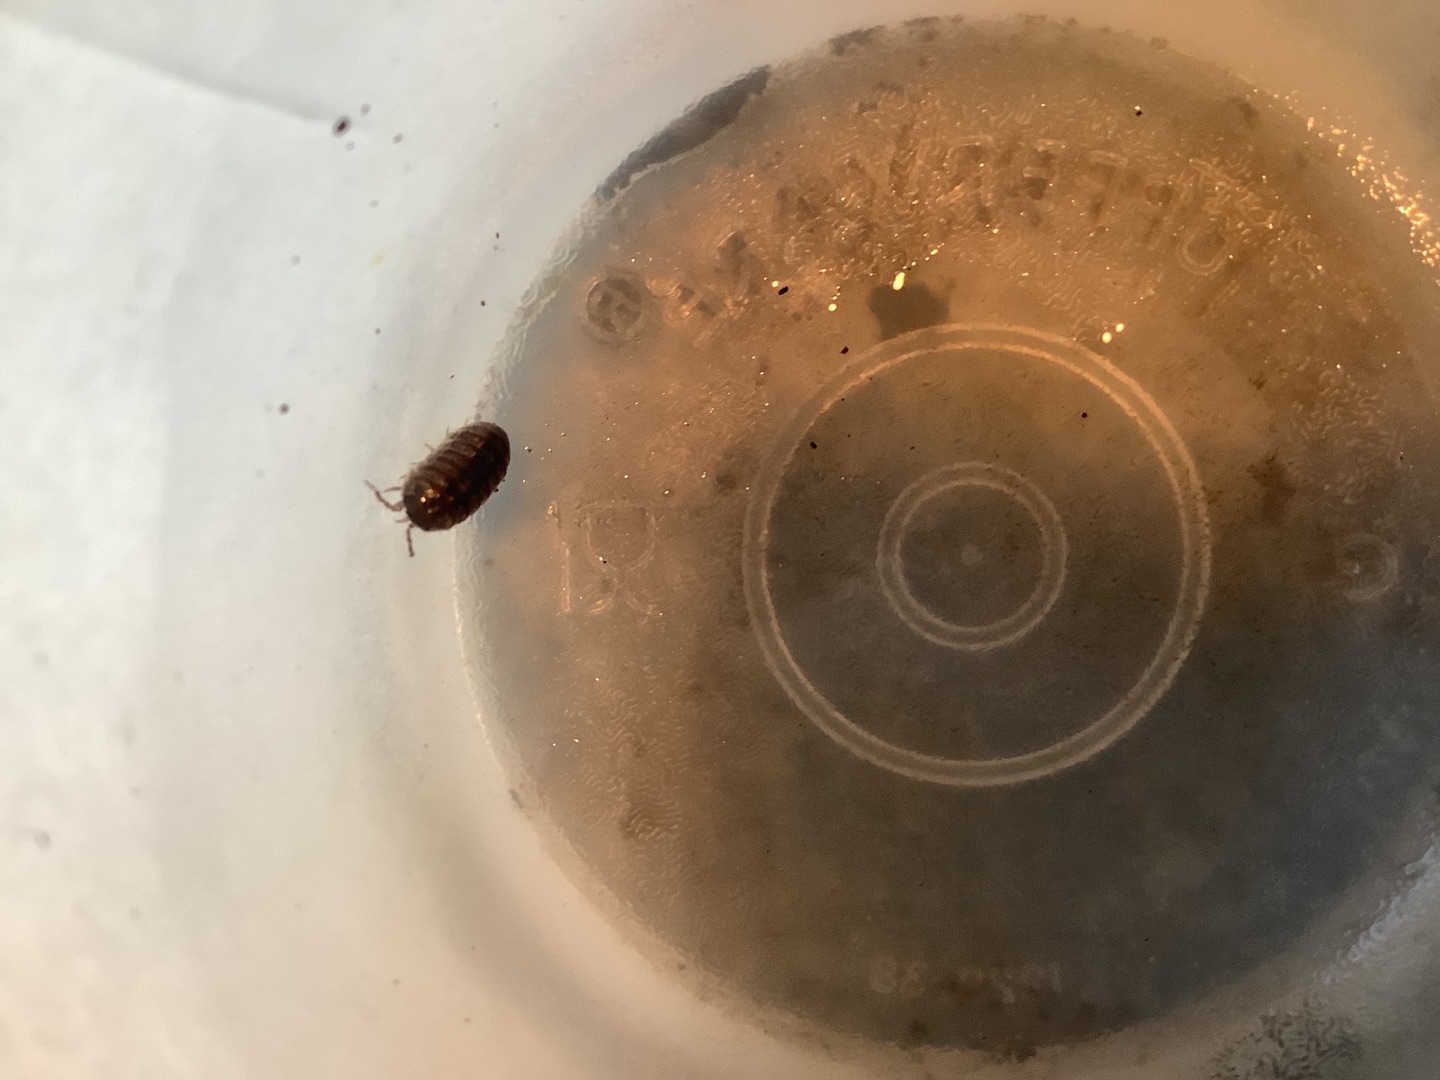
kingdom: Animalia
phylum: Arthropoda
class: Malacostraca
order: Isopoda
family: Armadillidiidae
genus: Armadillidium
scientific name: Armadillidium vulgare
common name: Almindelig kuglebænkebider
